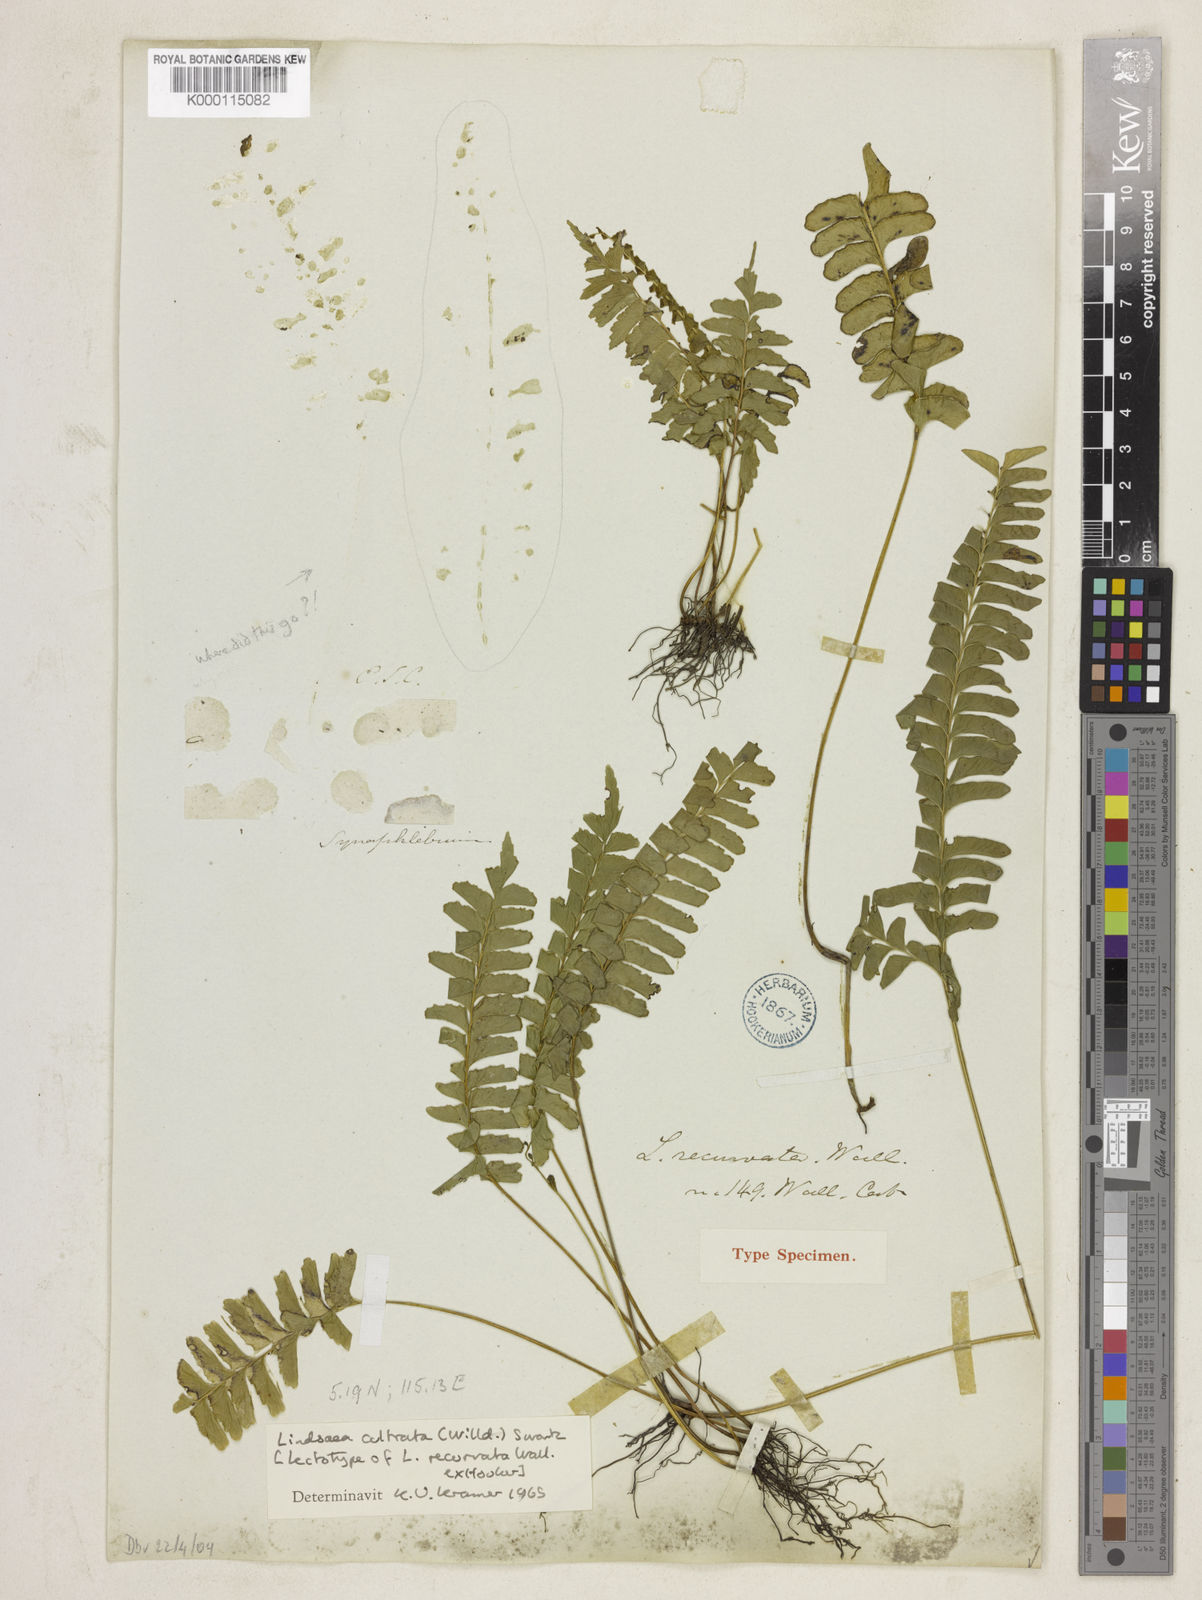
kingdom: Plantae
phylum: Tracheophyta
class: Polypodiopsida
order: Polypodiales
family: Lindsaeaceae
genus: Lindsaea
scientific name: Lindsaea cultrata
